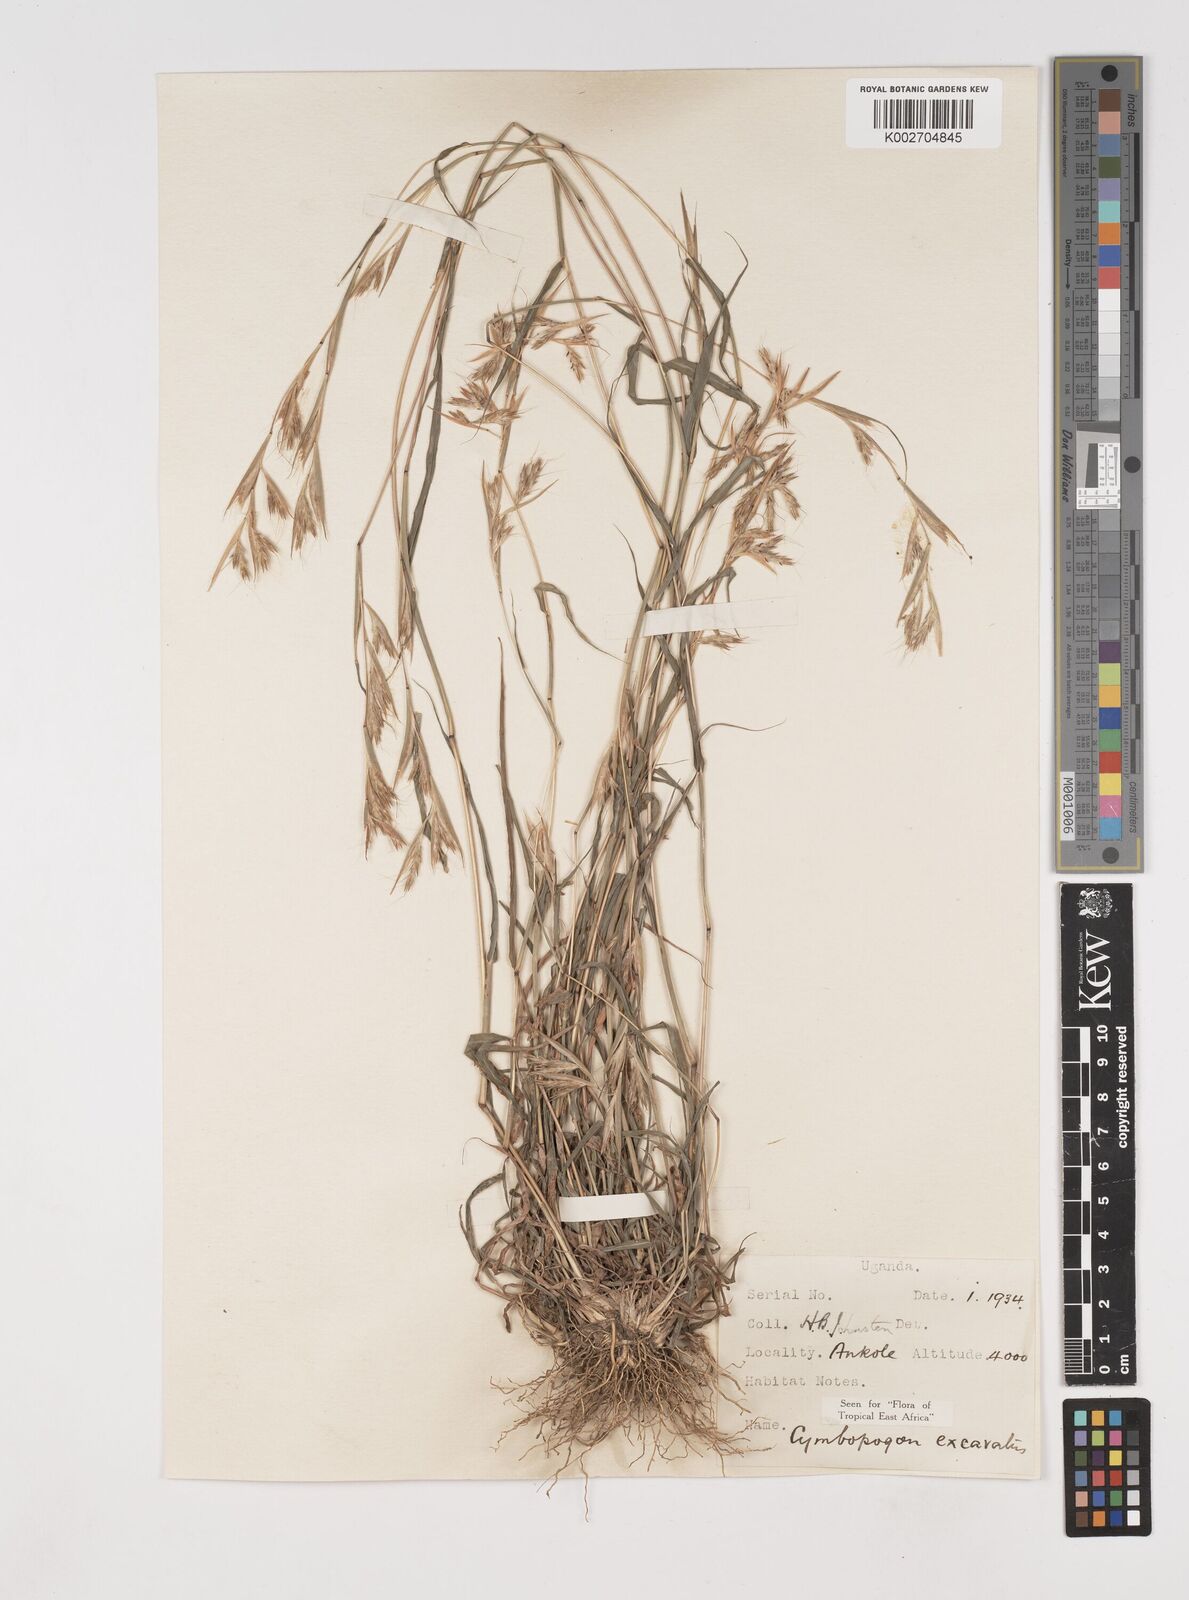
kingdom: Plantae
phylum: Tracheophyta
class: Liliopsida
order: Poales
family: Poaceae
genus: Cymbopogon
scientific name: Cymbopogon caesius
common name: Kachi grass
